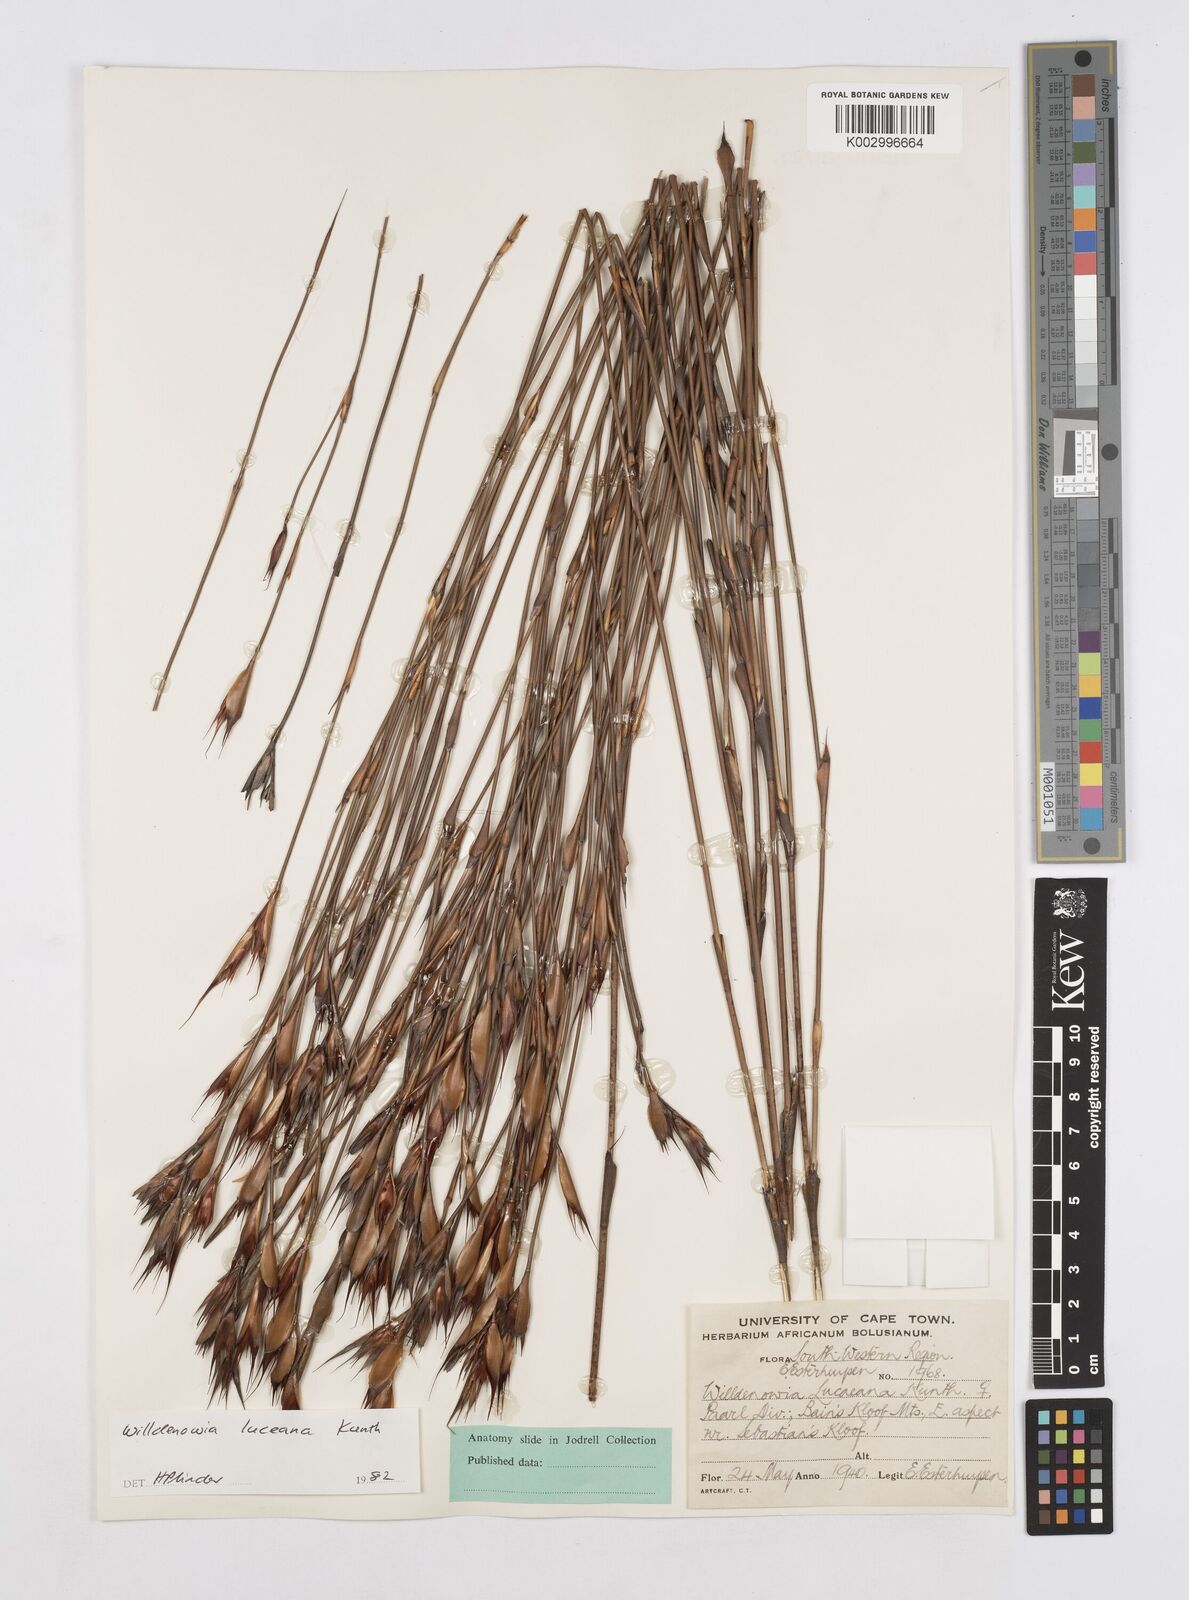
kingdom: Plantae
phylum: Tracheophyta
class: Liliopsida
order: Poales
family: Restionaceae
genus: Willdenowia
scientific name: Willdenowia glomerata
